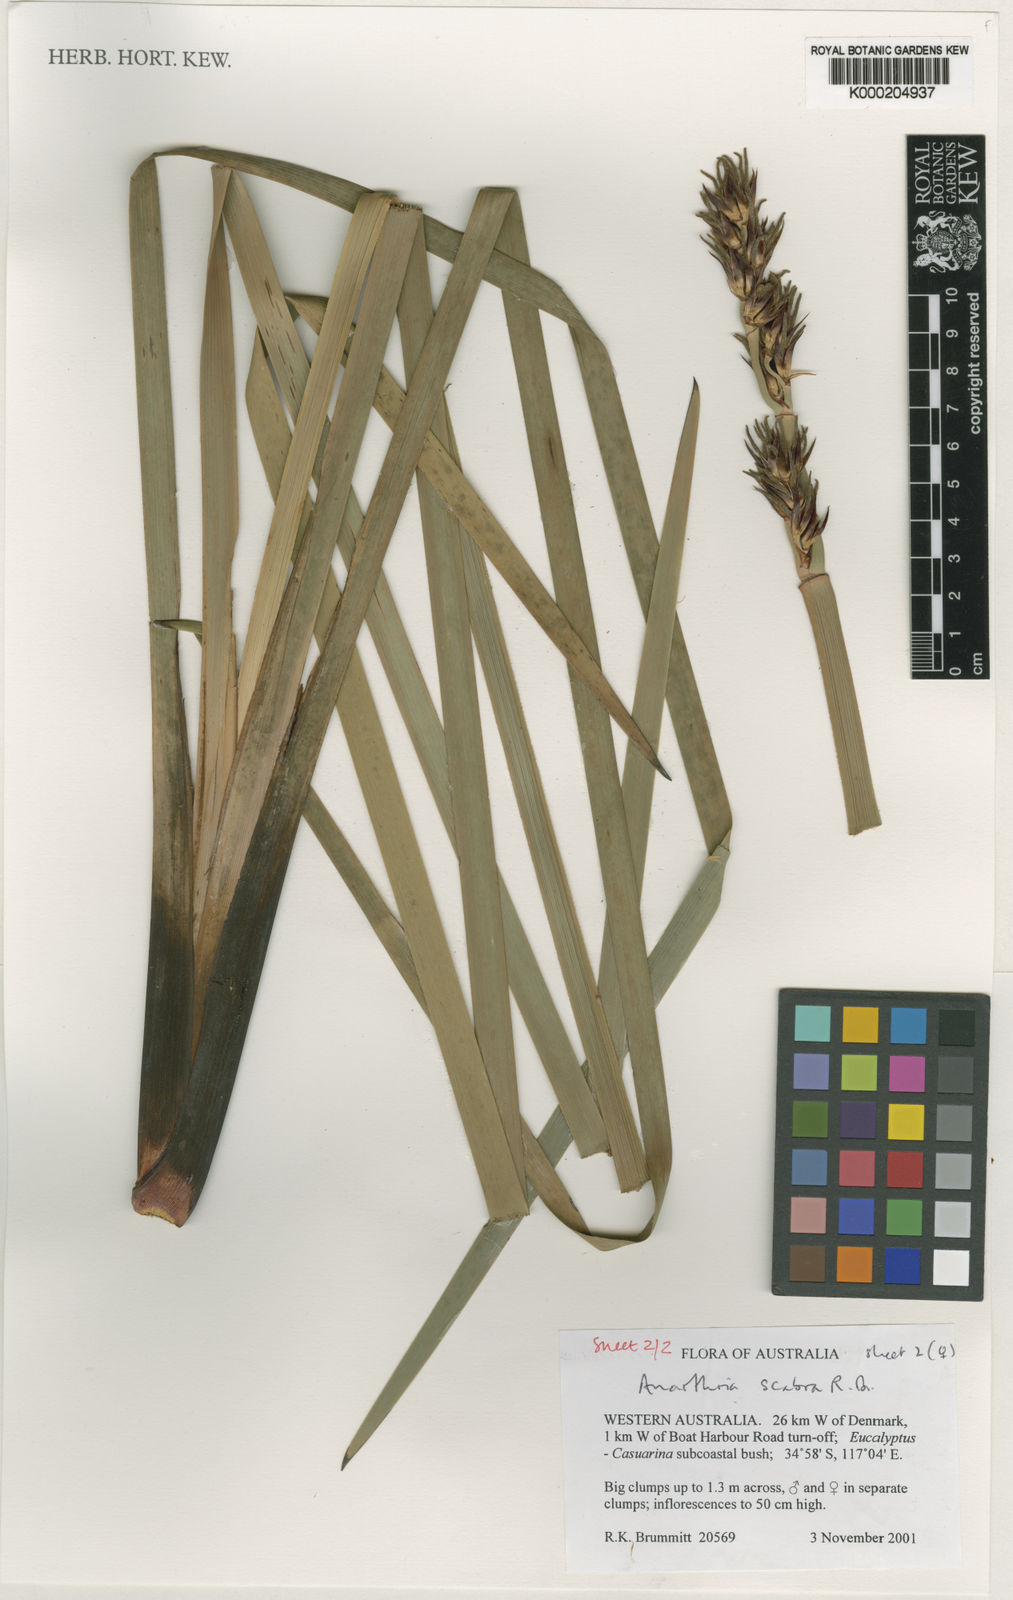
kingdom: Plantae
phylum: Tracheophyta
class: Liliopsida
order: Poales
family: Restionaceae
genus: Anarthria
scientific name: Anarthria scabra
